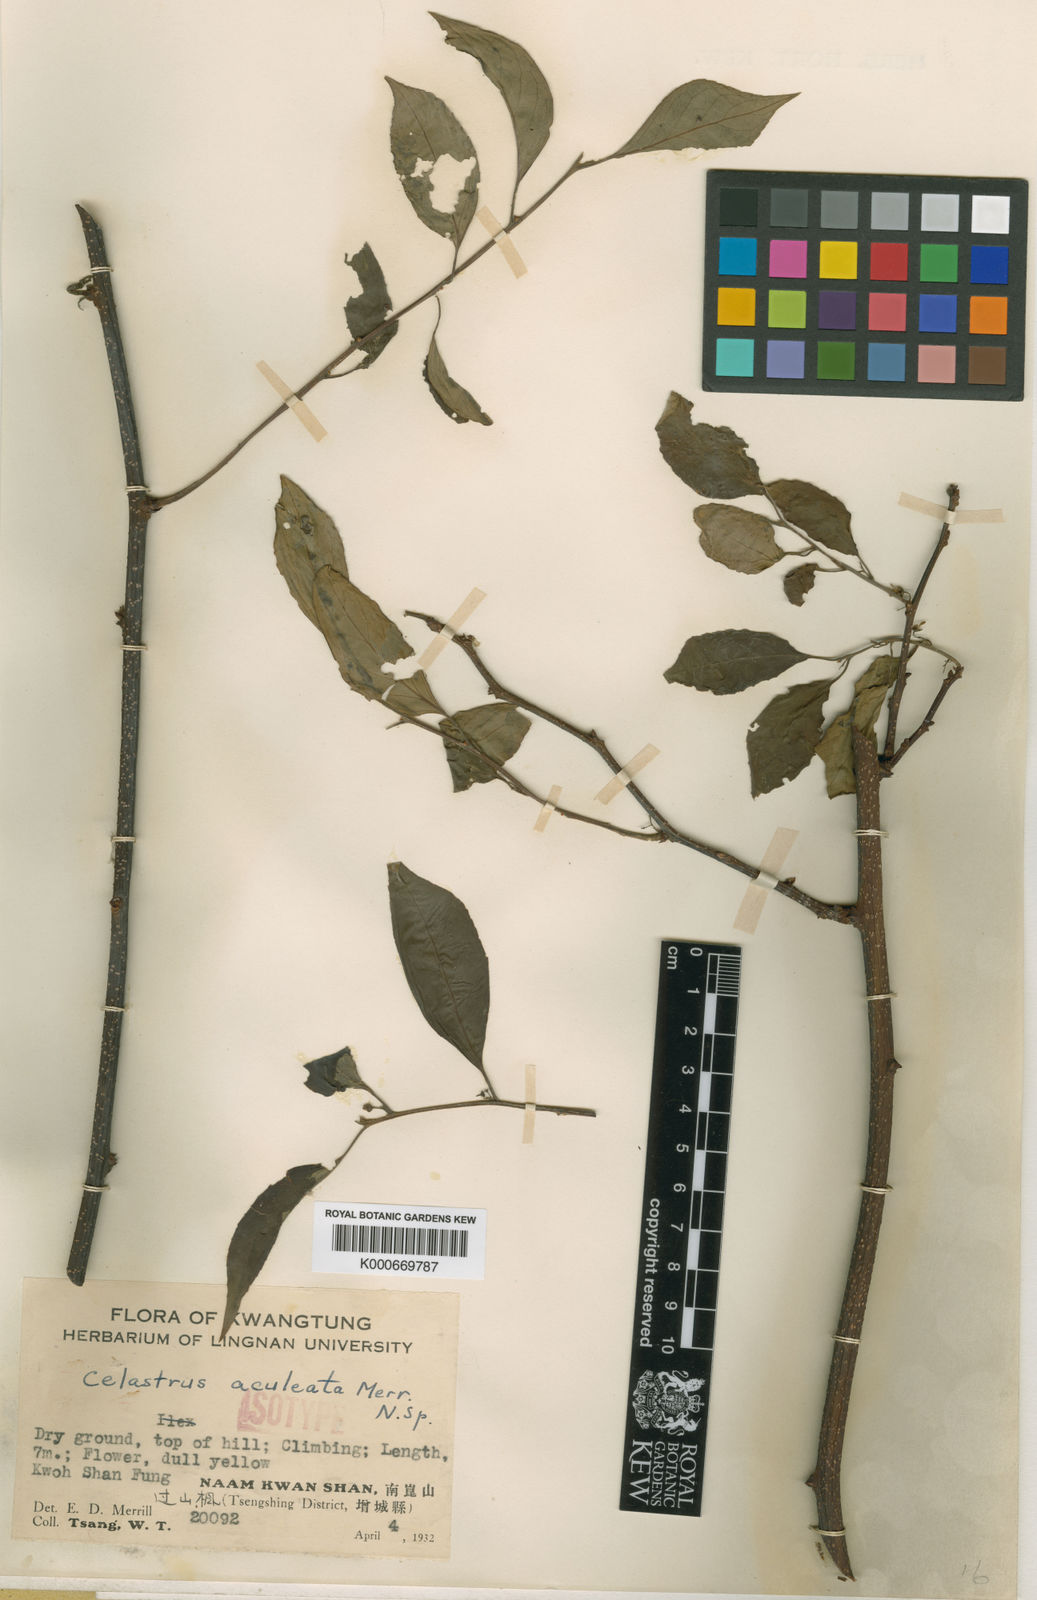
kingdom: Plantae
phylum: Tracheophyta
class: Magnoliopsida
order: Celastrales
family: Celastraceae
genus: Celastrus
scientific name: Celastrus aculeatus
